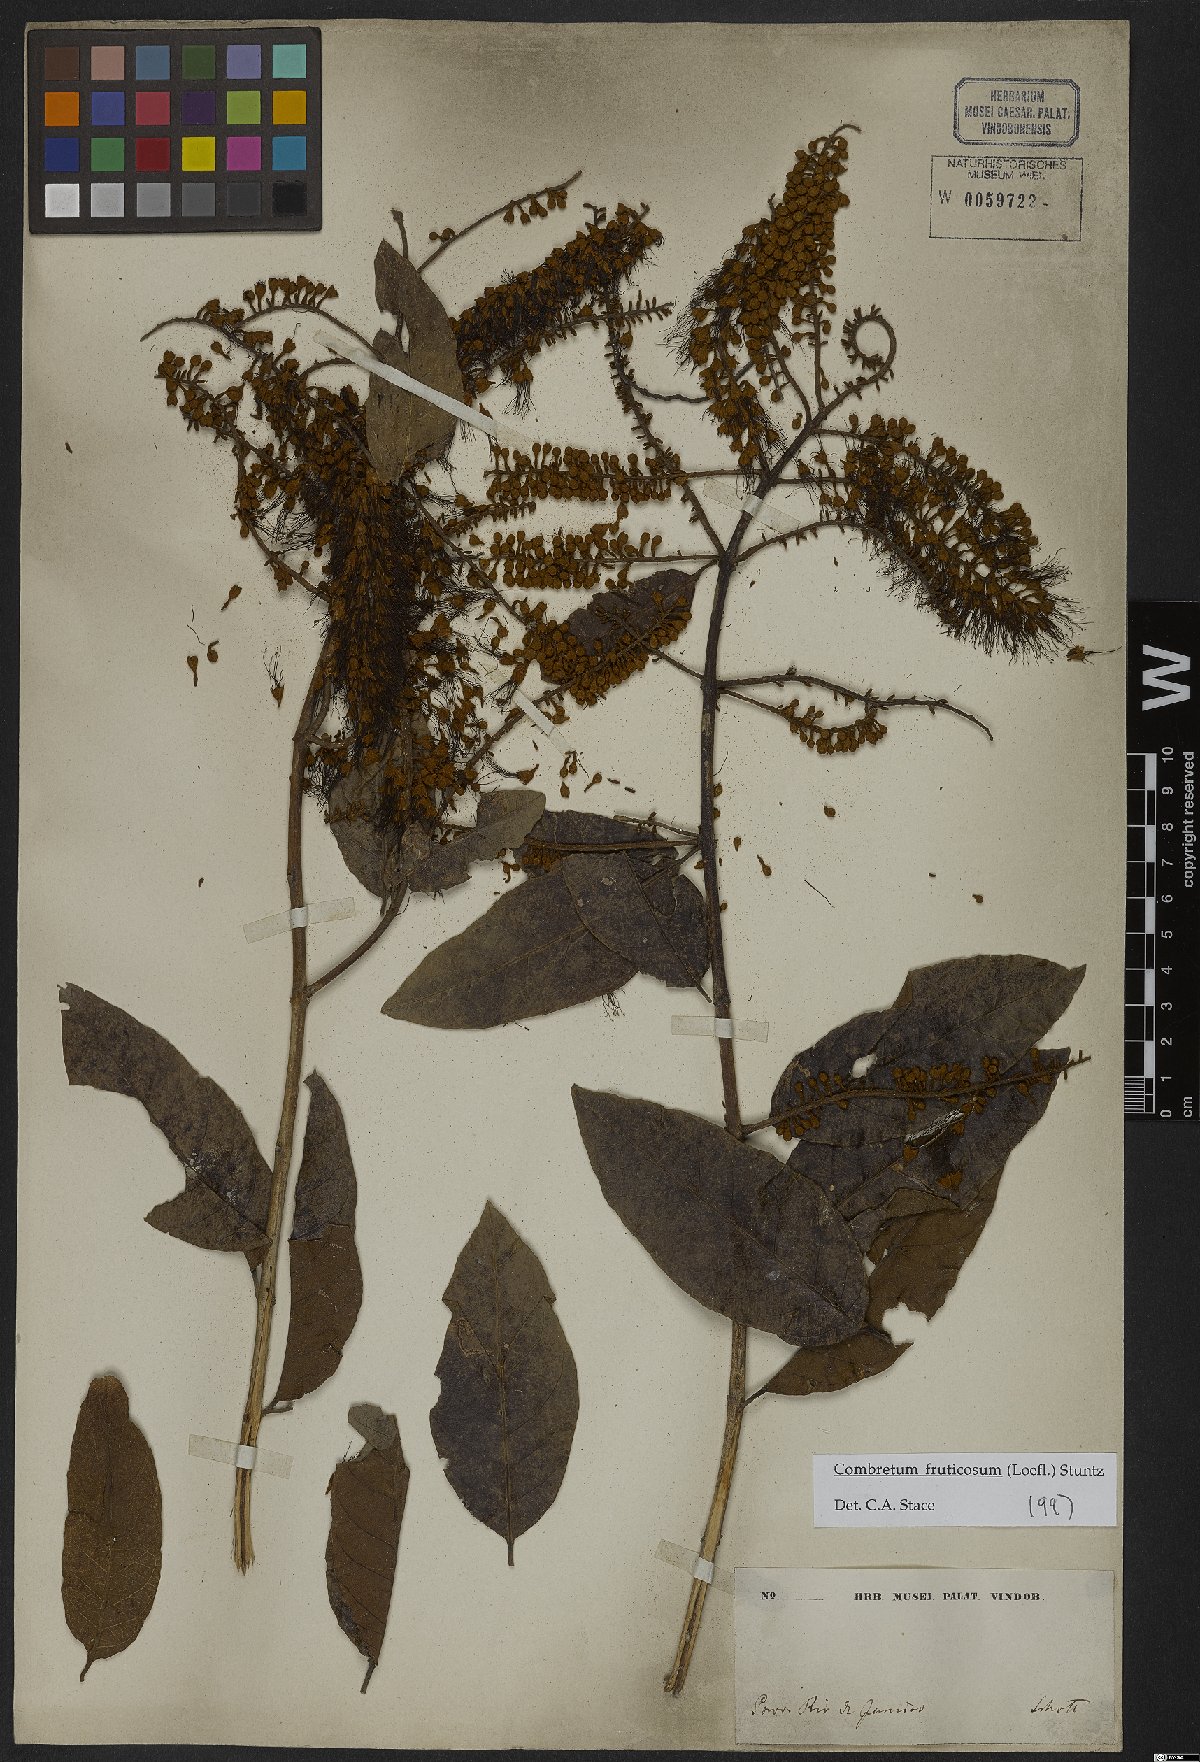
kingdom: Plantae
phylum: Tracheophyta
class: Magnoliopsida
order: Myrtales
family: Combretaceae
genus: Combretum
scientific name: Combretum fruticosum
